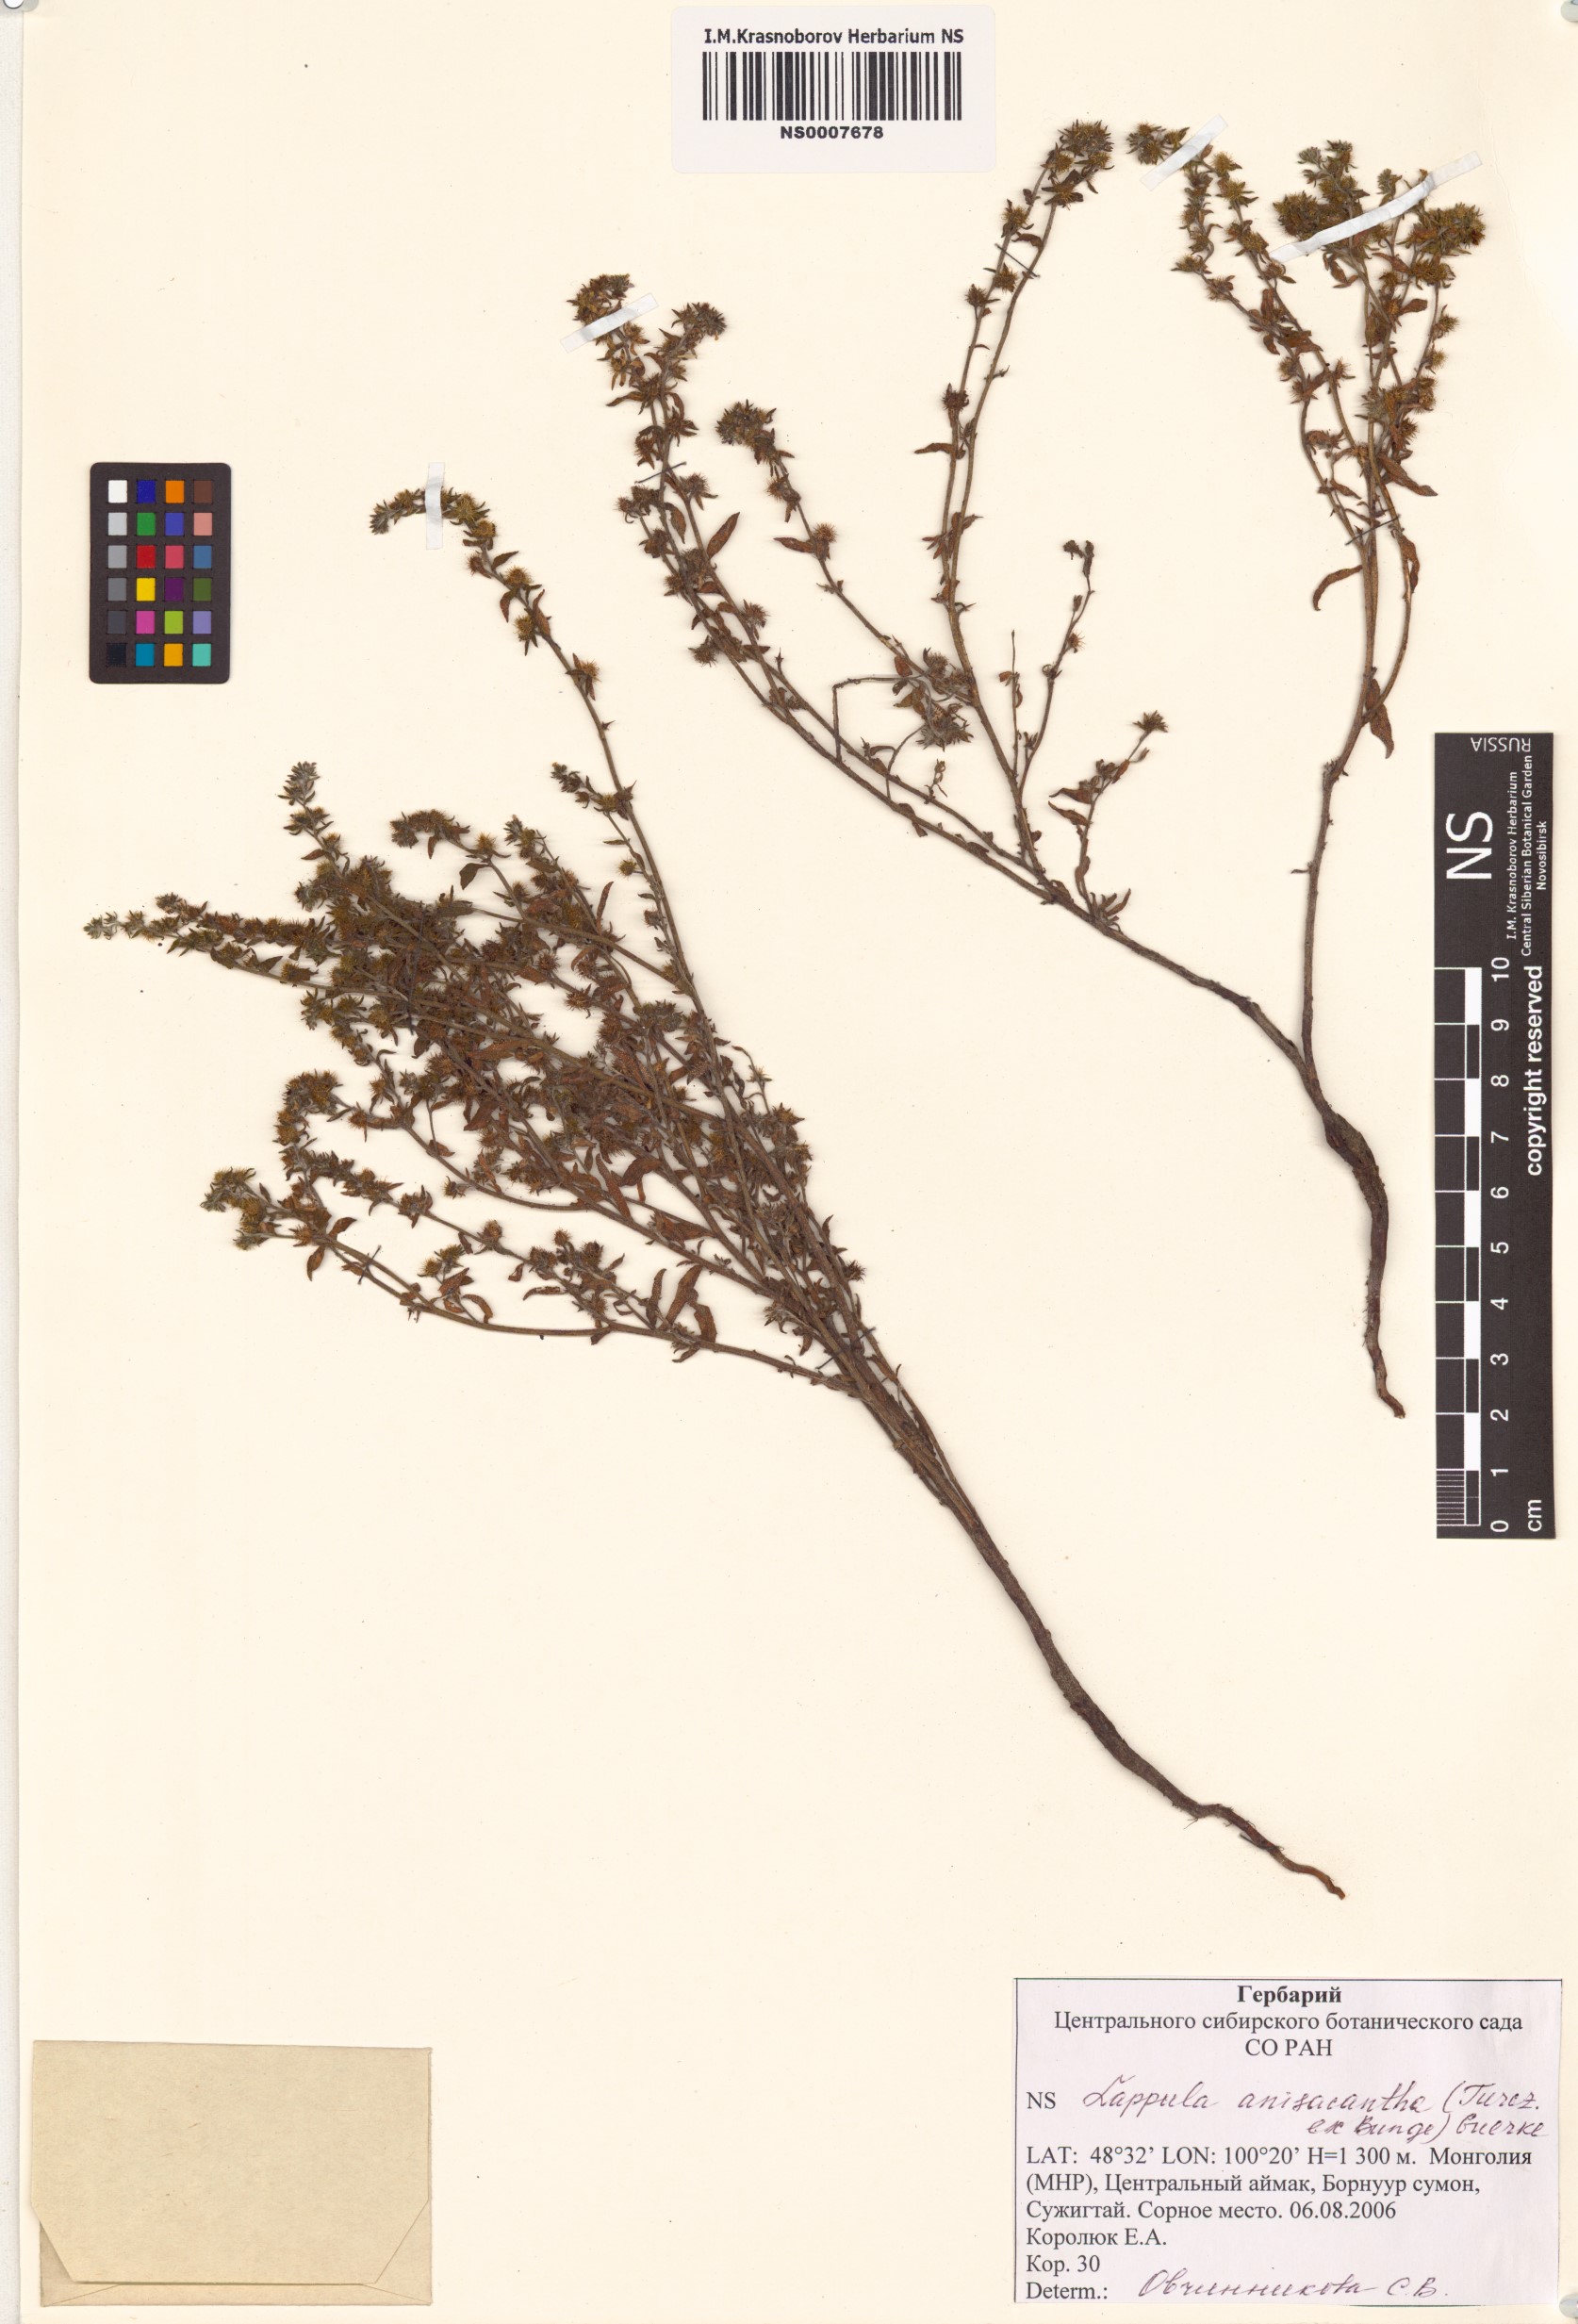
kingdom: Plantae
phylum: Tracheophyta
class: Magnoliopsida
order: Boraginales
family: Boraginaceae
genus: Lappula
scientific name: Lappula intermedia
